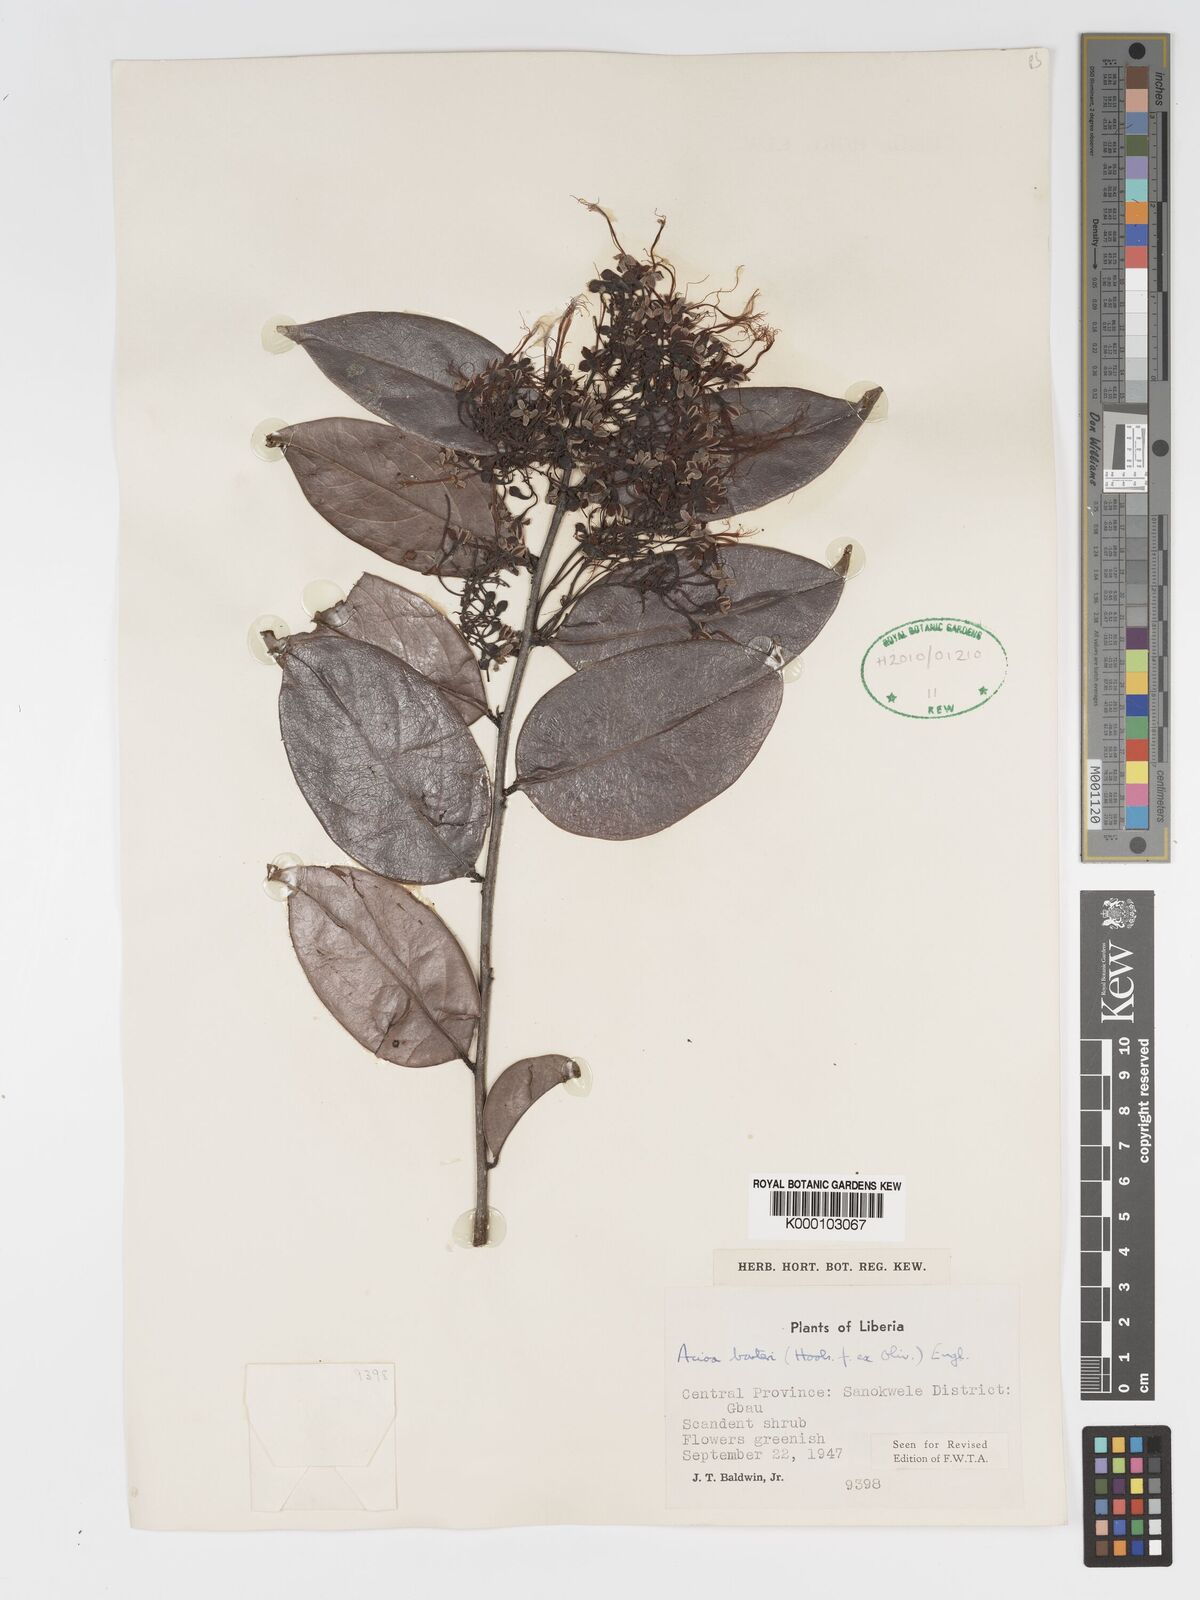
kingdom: Plantae
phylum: Tracheophyta
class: Magnoliopsida
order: Malpighiales
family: Chrysobalanaceae
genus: Dactyladenia
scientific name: Dactyladenia barteri
